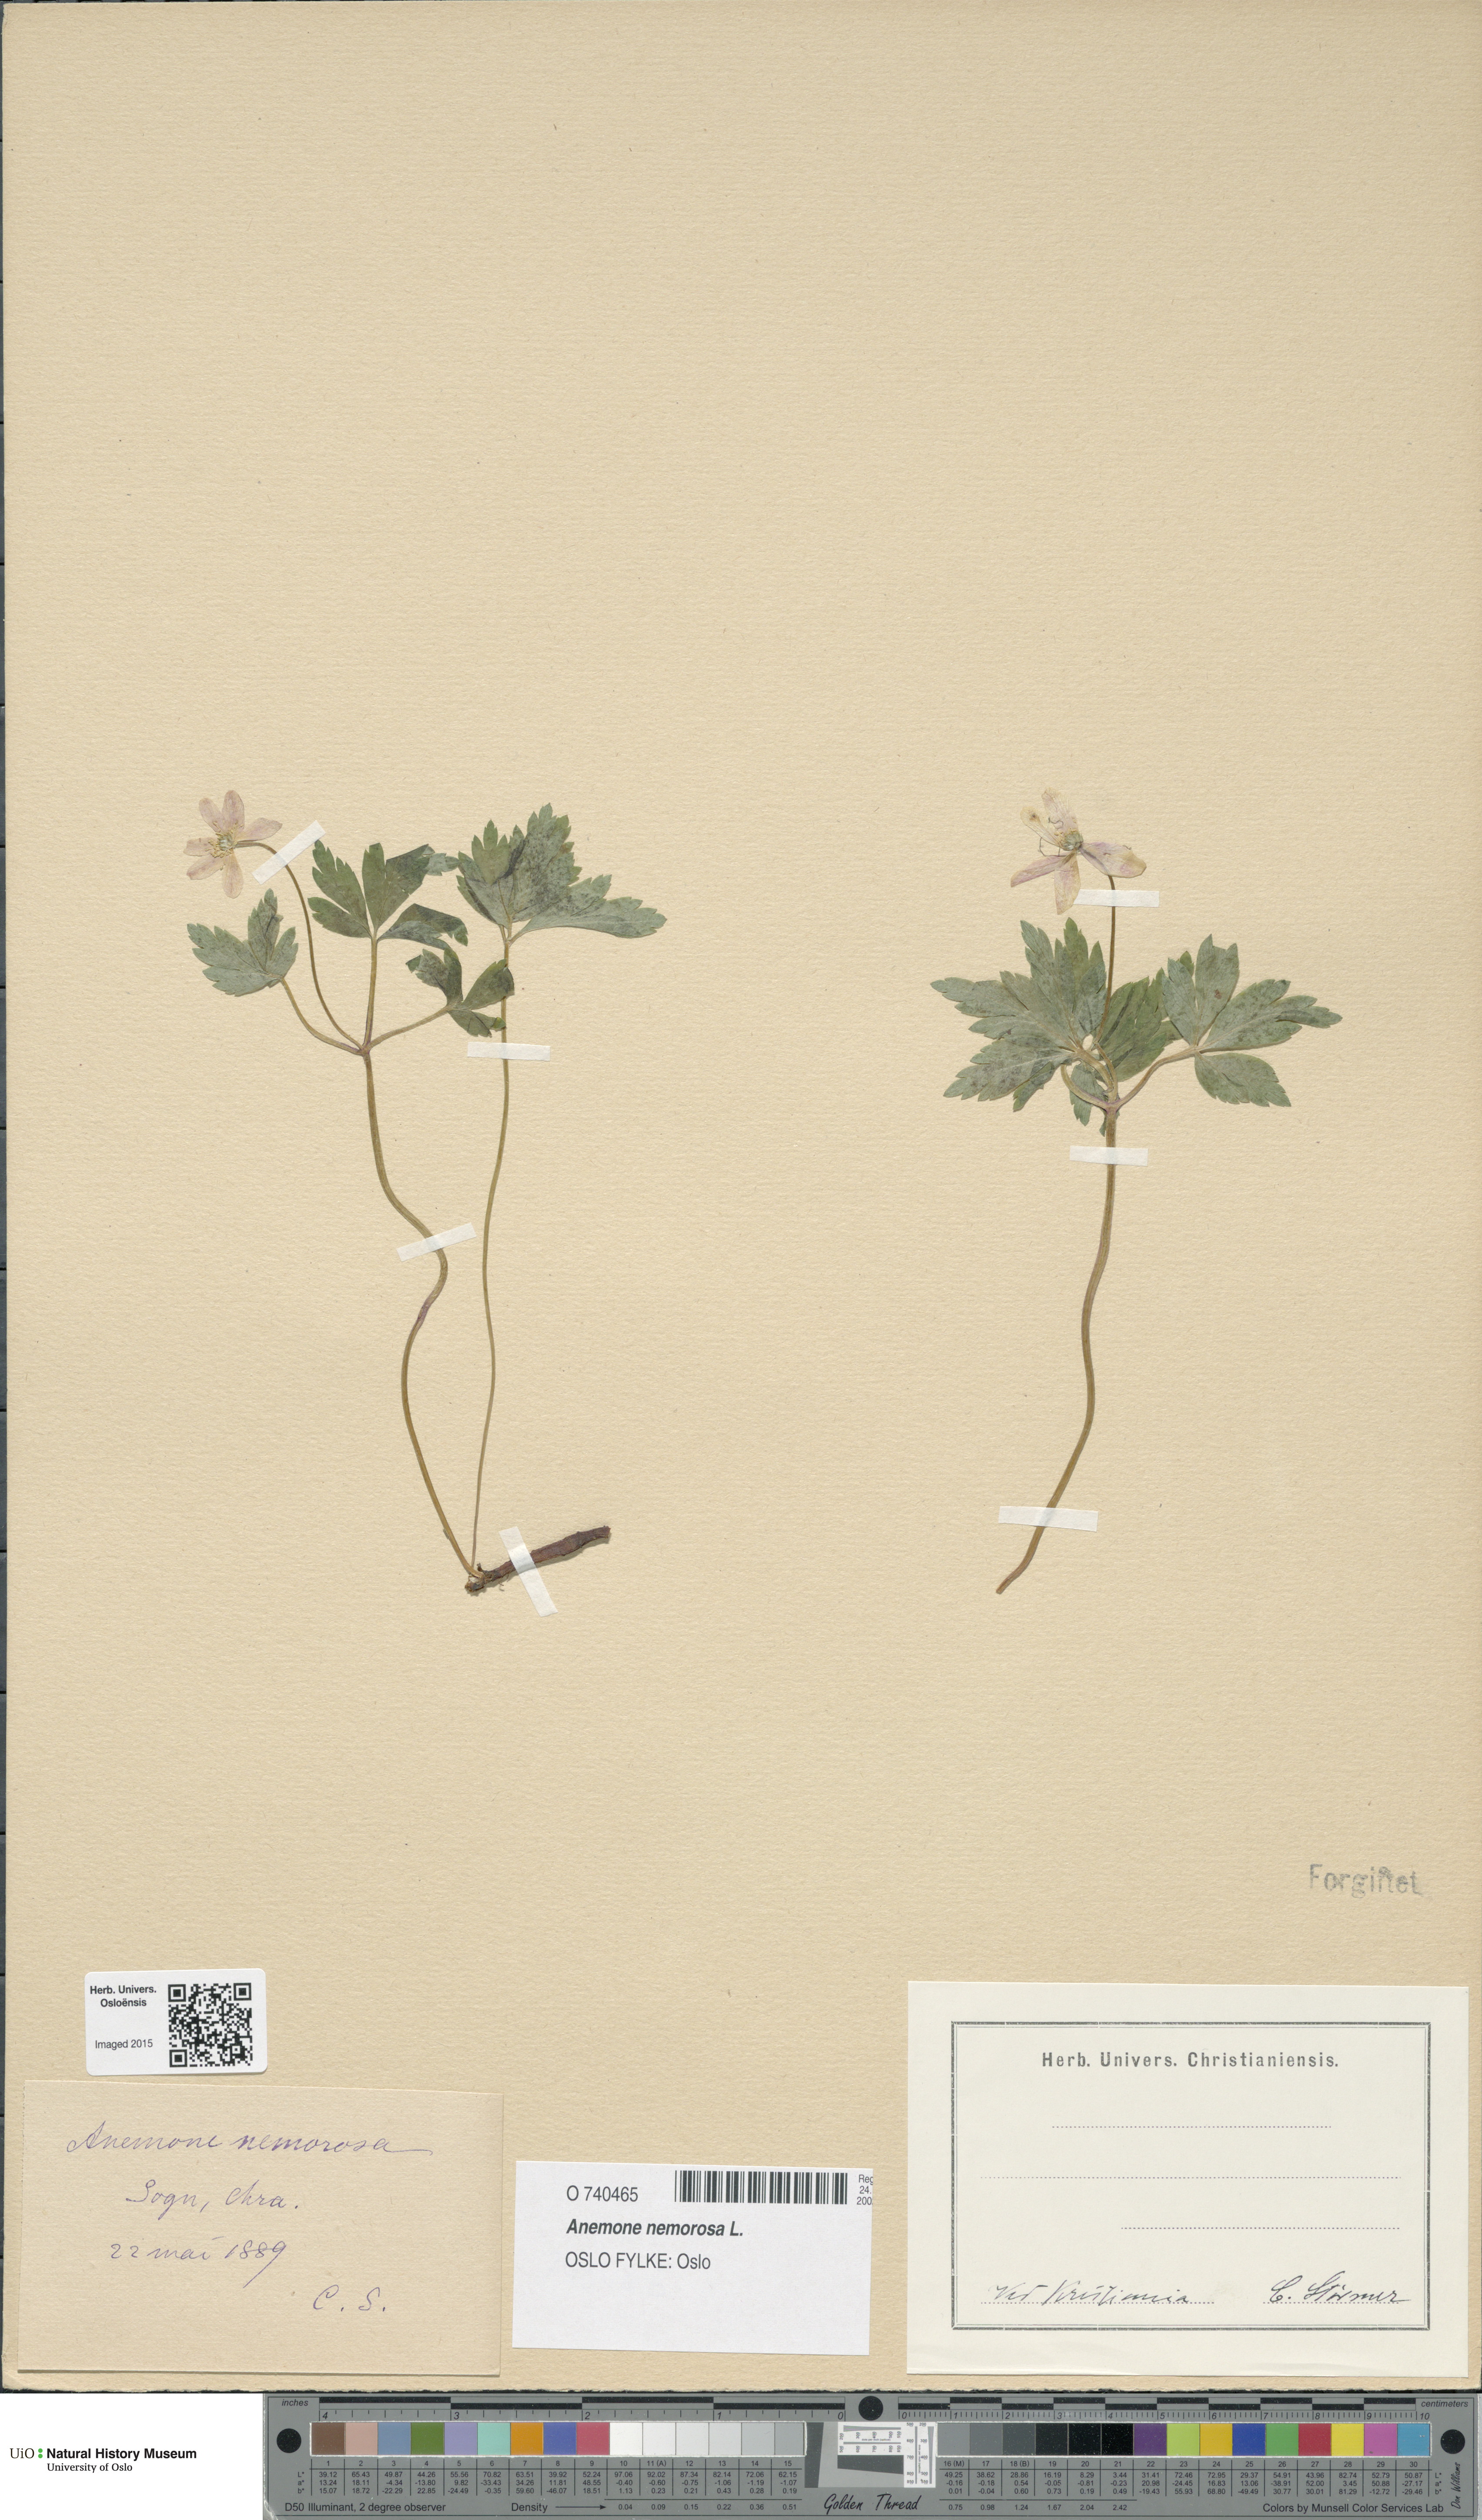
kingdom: Plantae
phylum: Tracheophyta
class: Magnoliopsida
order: Ranunculales
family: Ranunculaceae
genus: Anemone
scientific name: Anemone nemorosa
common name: Wood anemone
